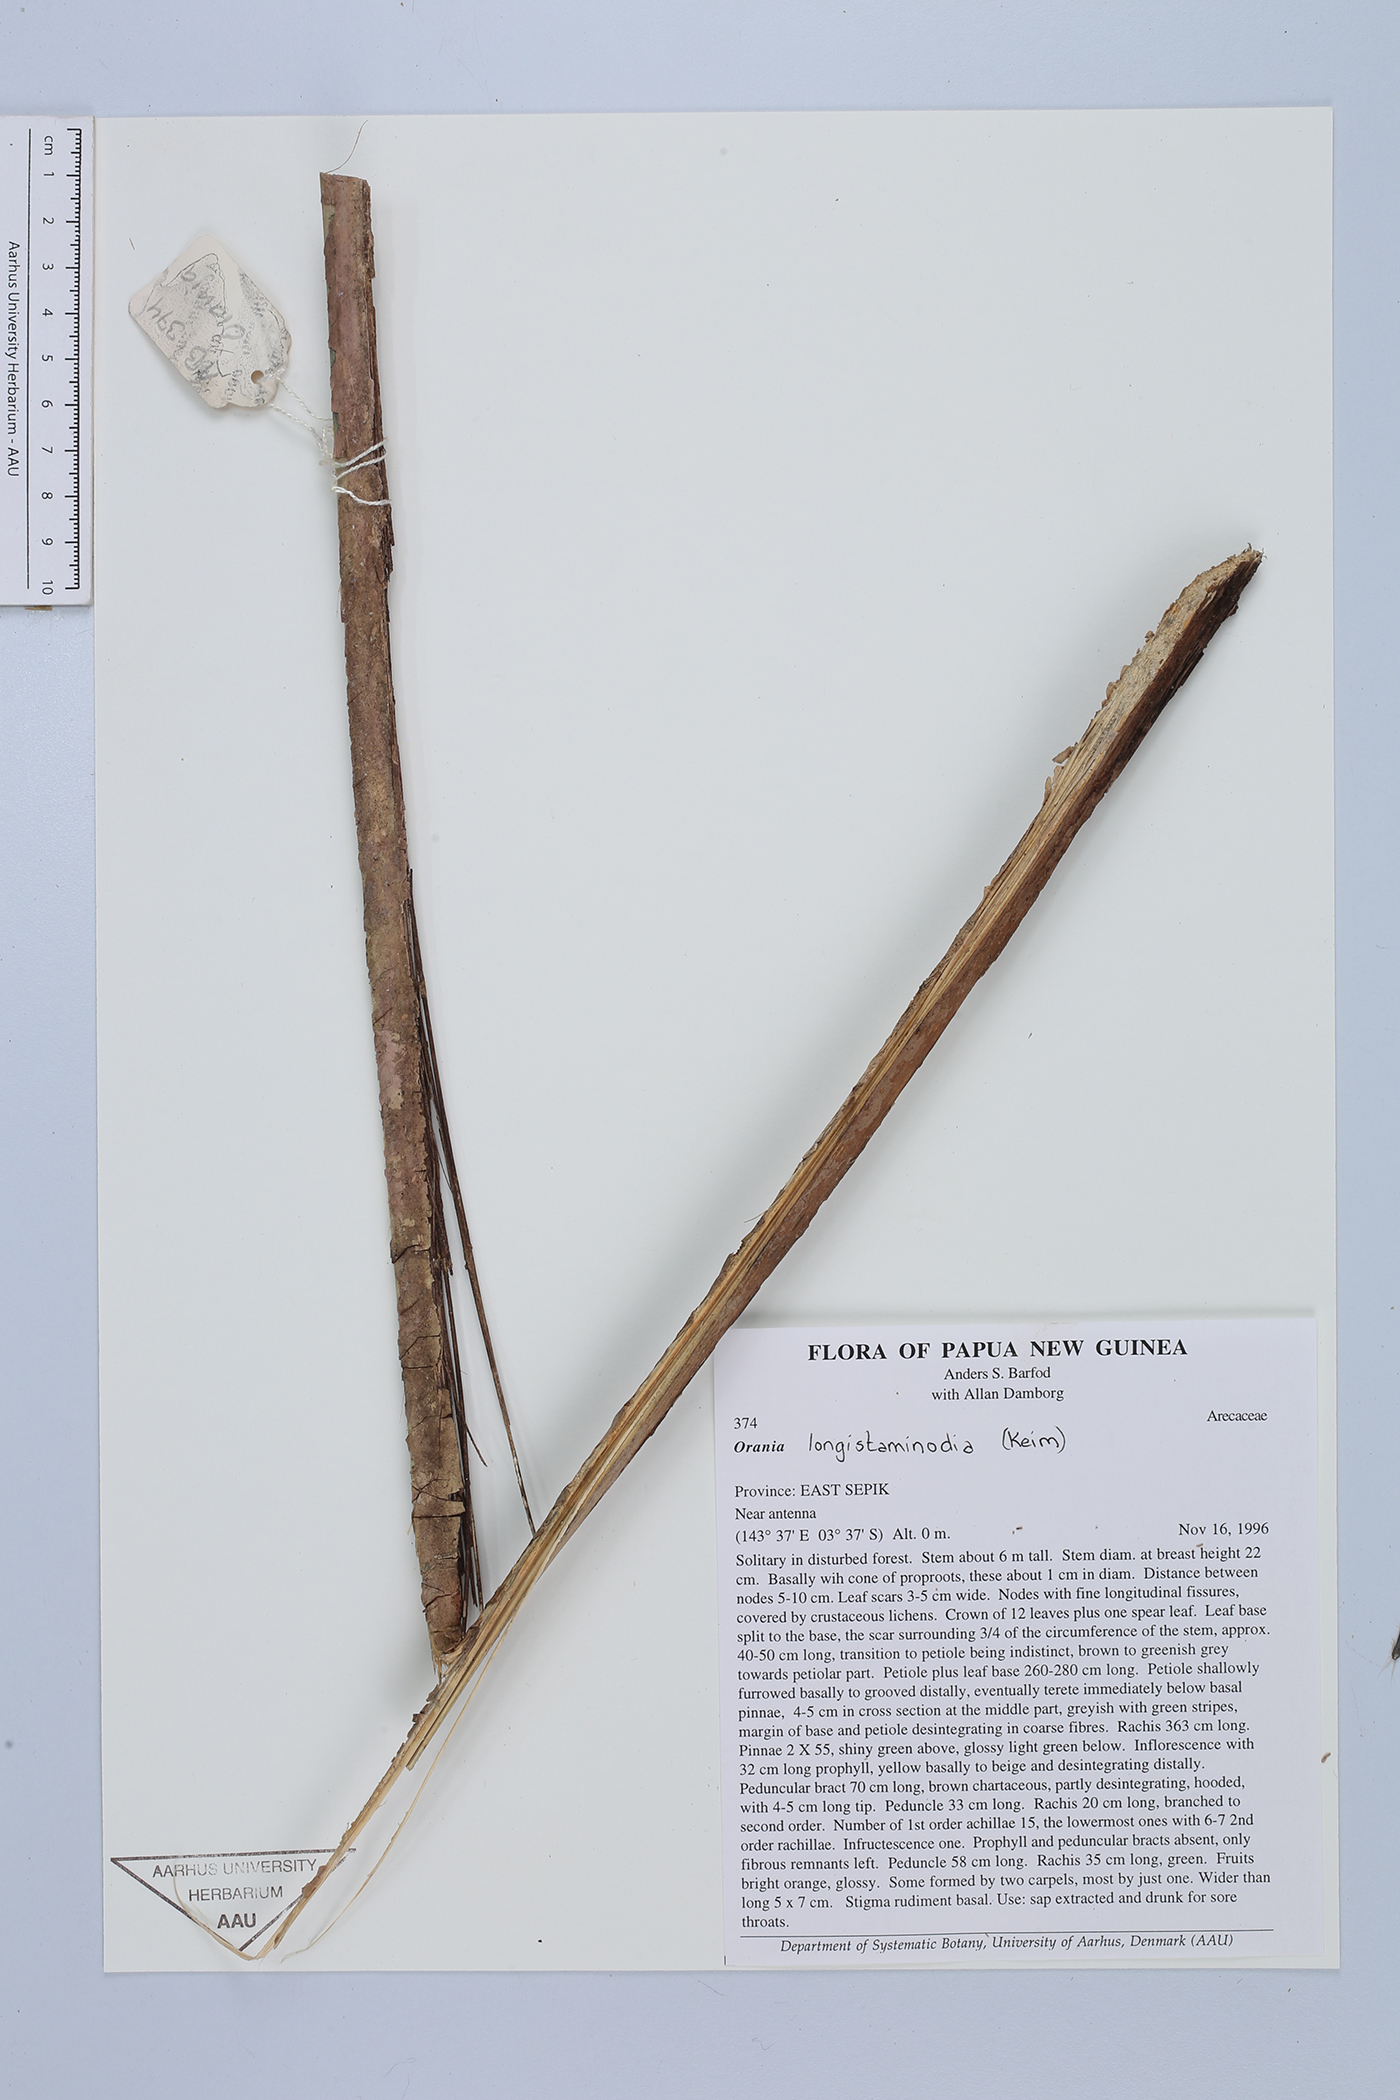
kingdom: Plantae
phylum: Tracheophyta
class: Liliopsida
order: Arecales
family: Arecaceae
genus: Orania
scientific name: Orania longistaminodia
